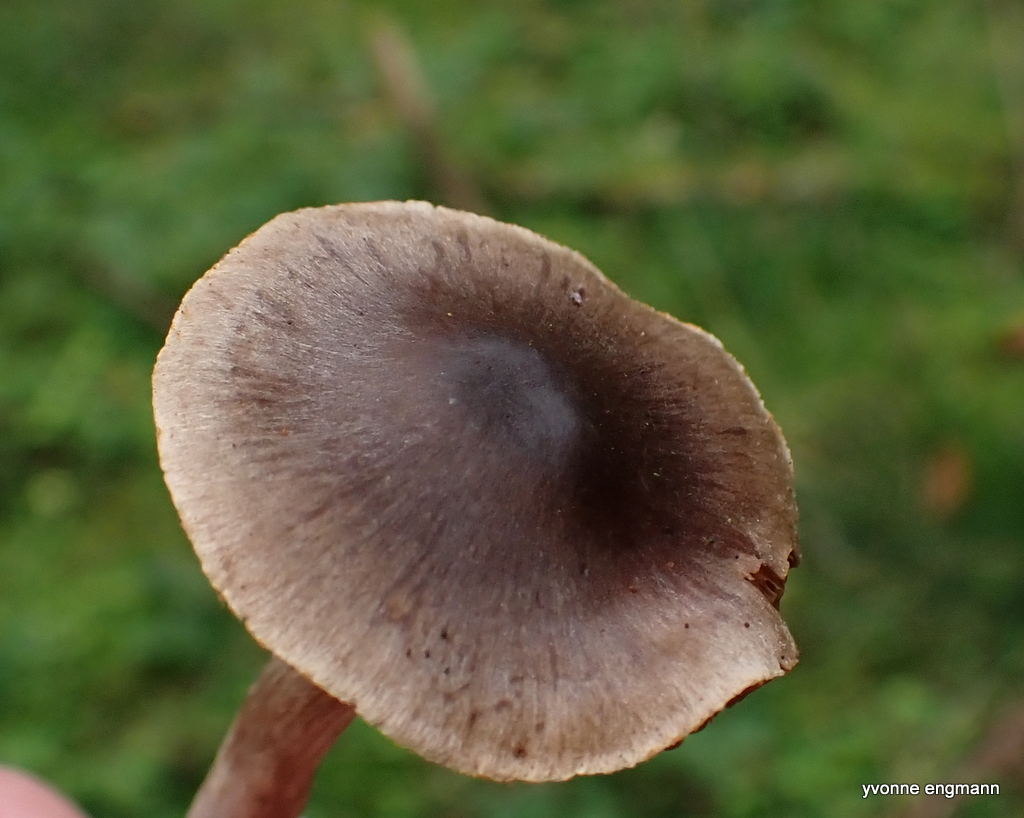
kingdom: Fungi
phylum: Basidiomycota
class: Agaricomycetes
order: Agaricales
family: Cortinariaceae
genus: Cortinarius
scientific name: Cortinarius
